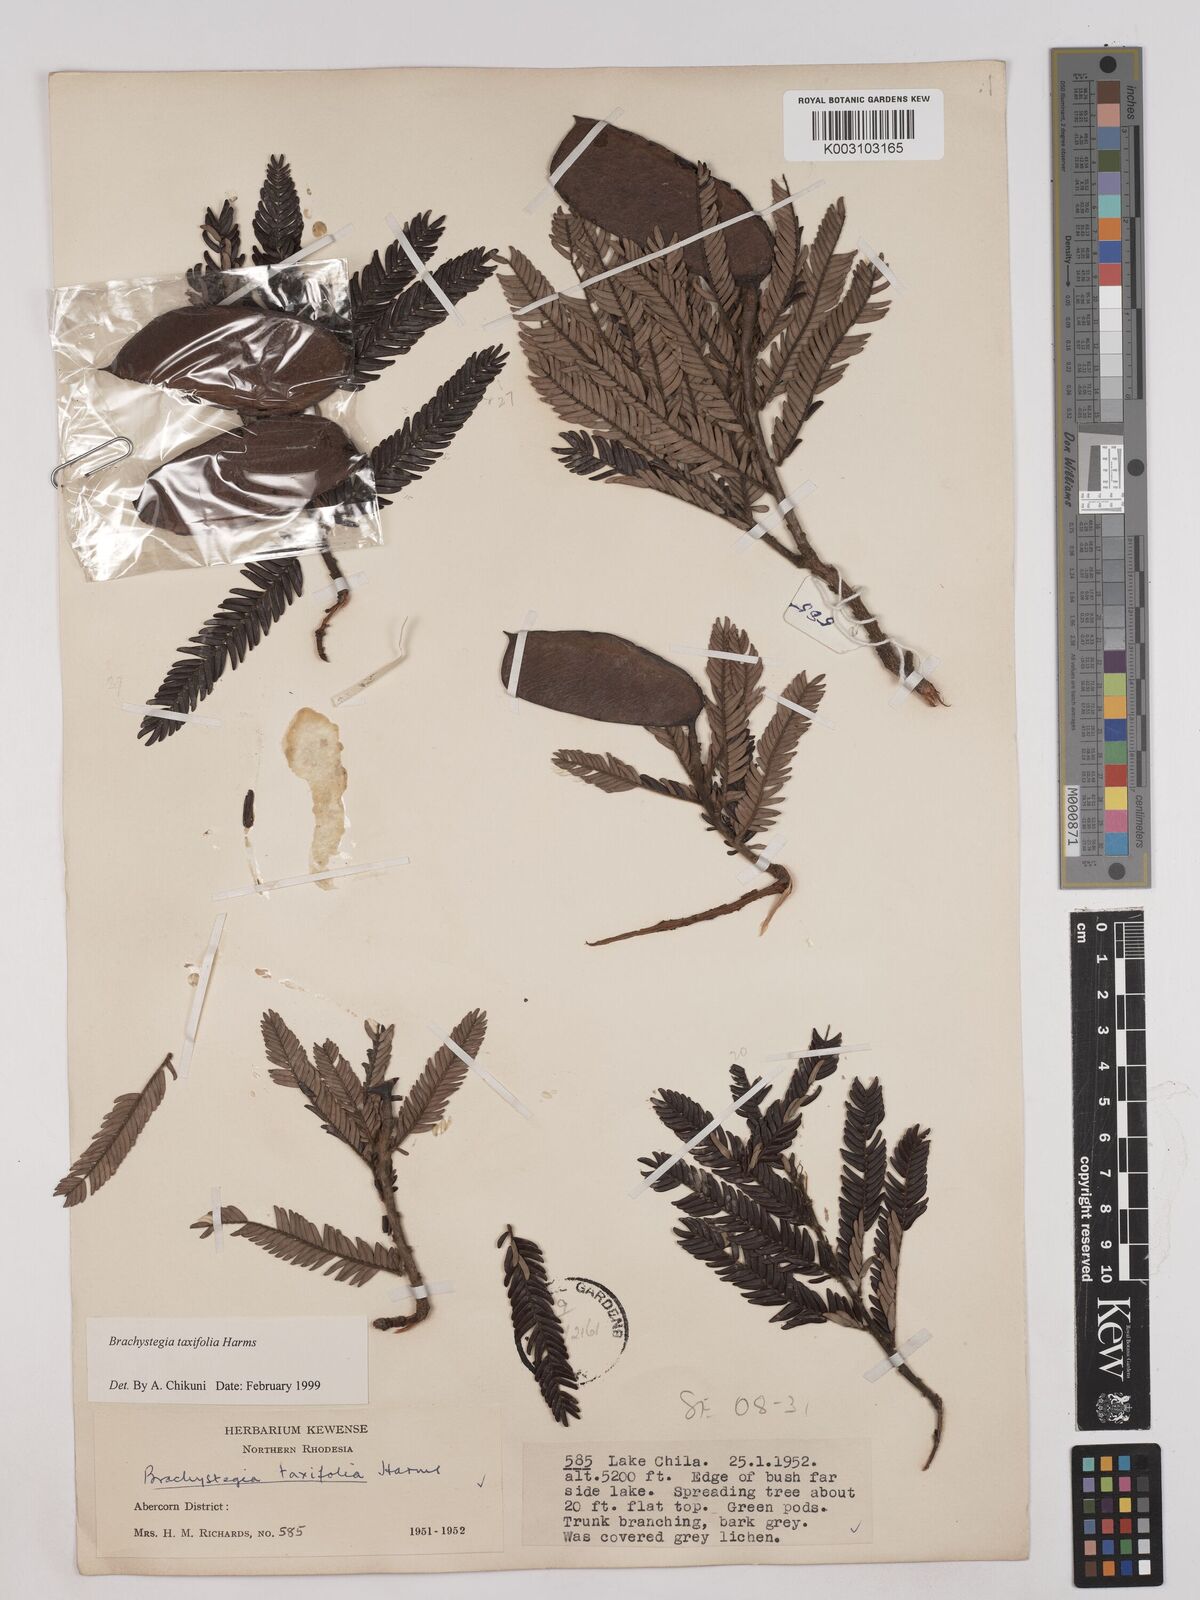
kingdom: Plantae
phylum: Tracheophyta
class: Magnoliopsida
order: Fabales
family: Fabaceae
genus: Brachystegia
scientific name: Brachystegia taxifolia
